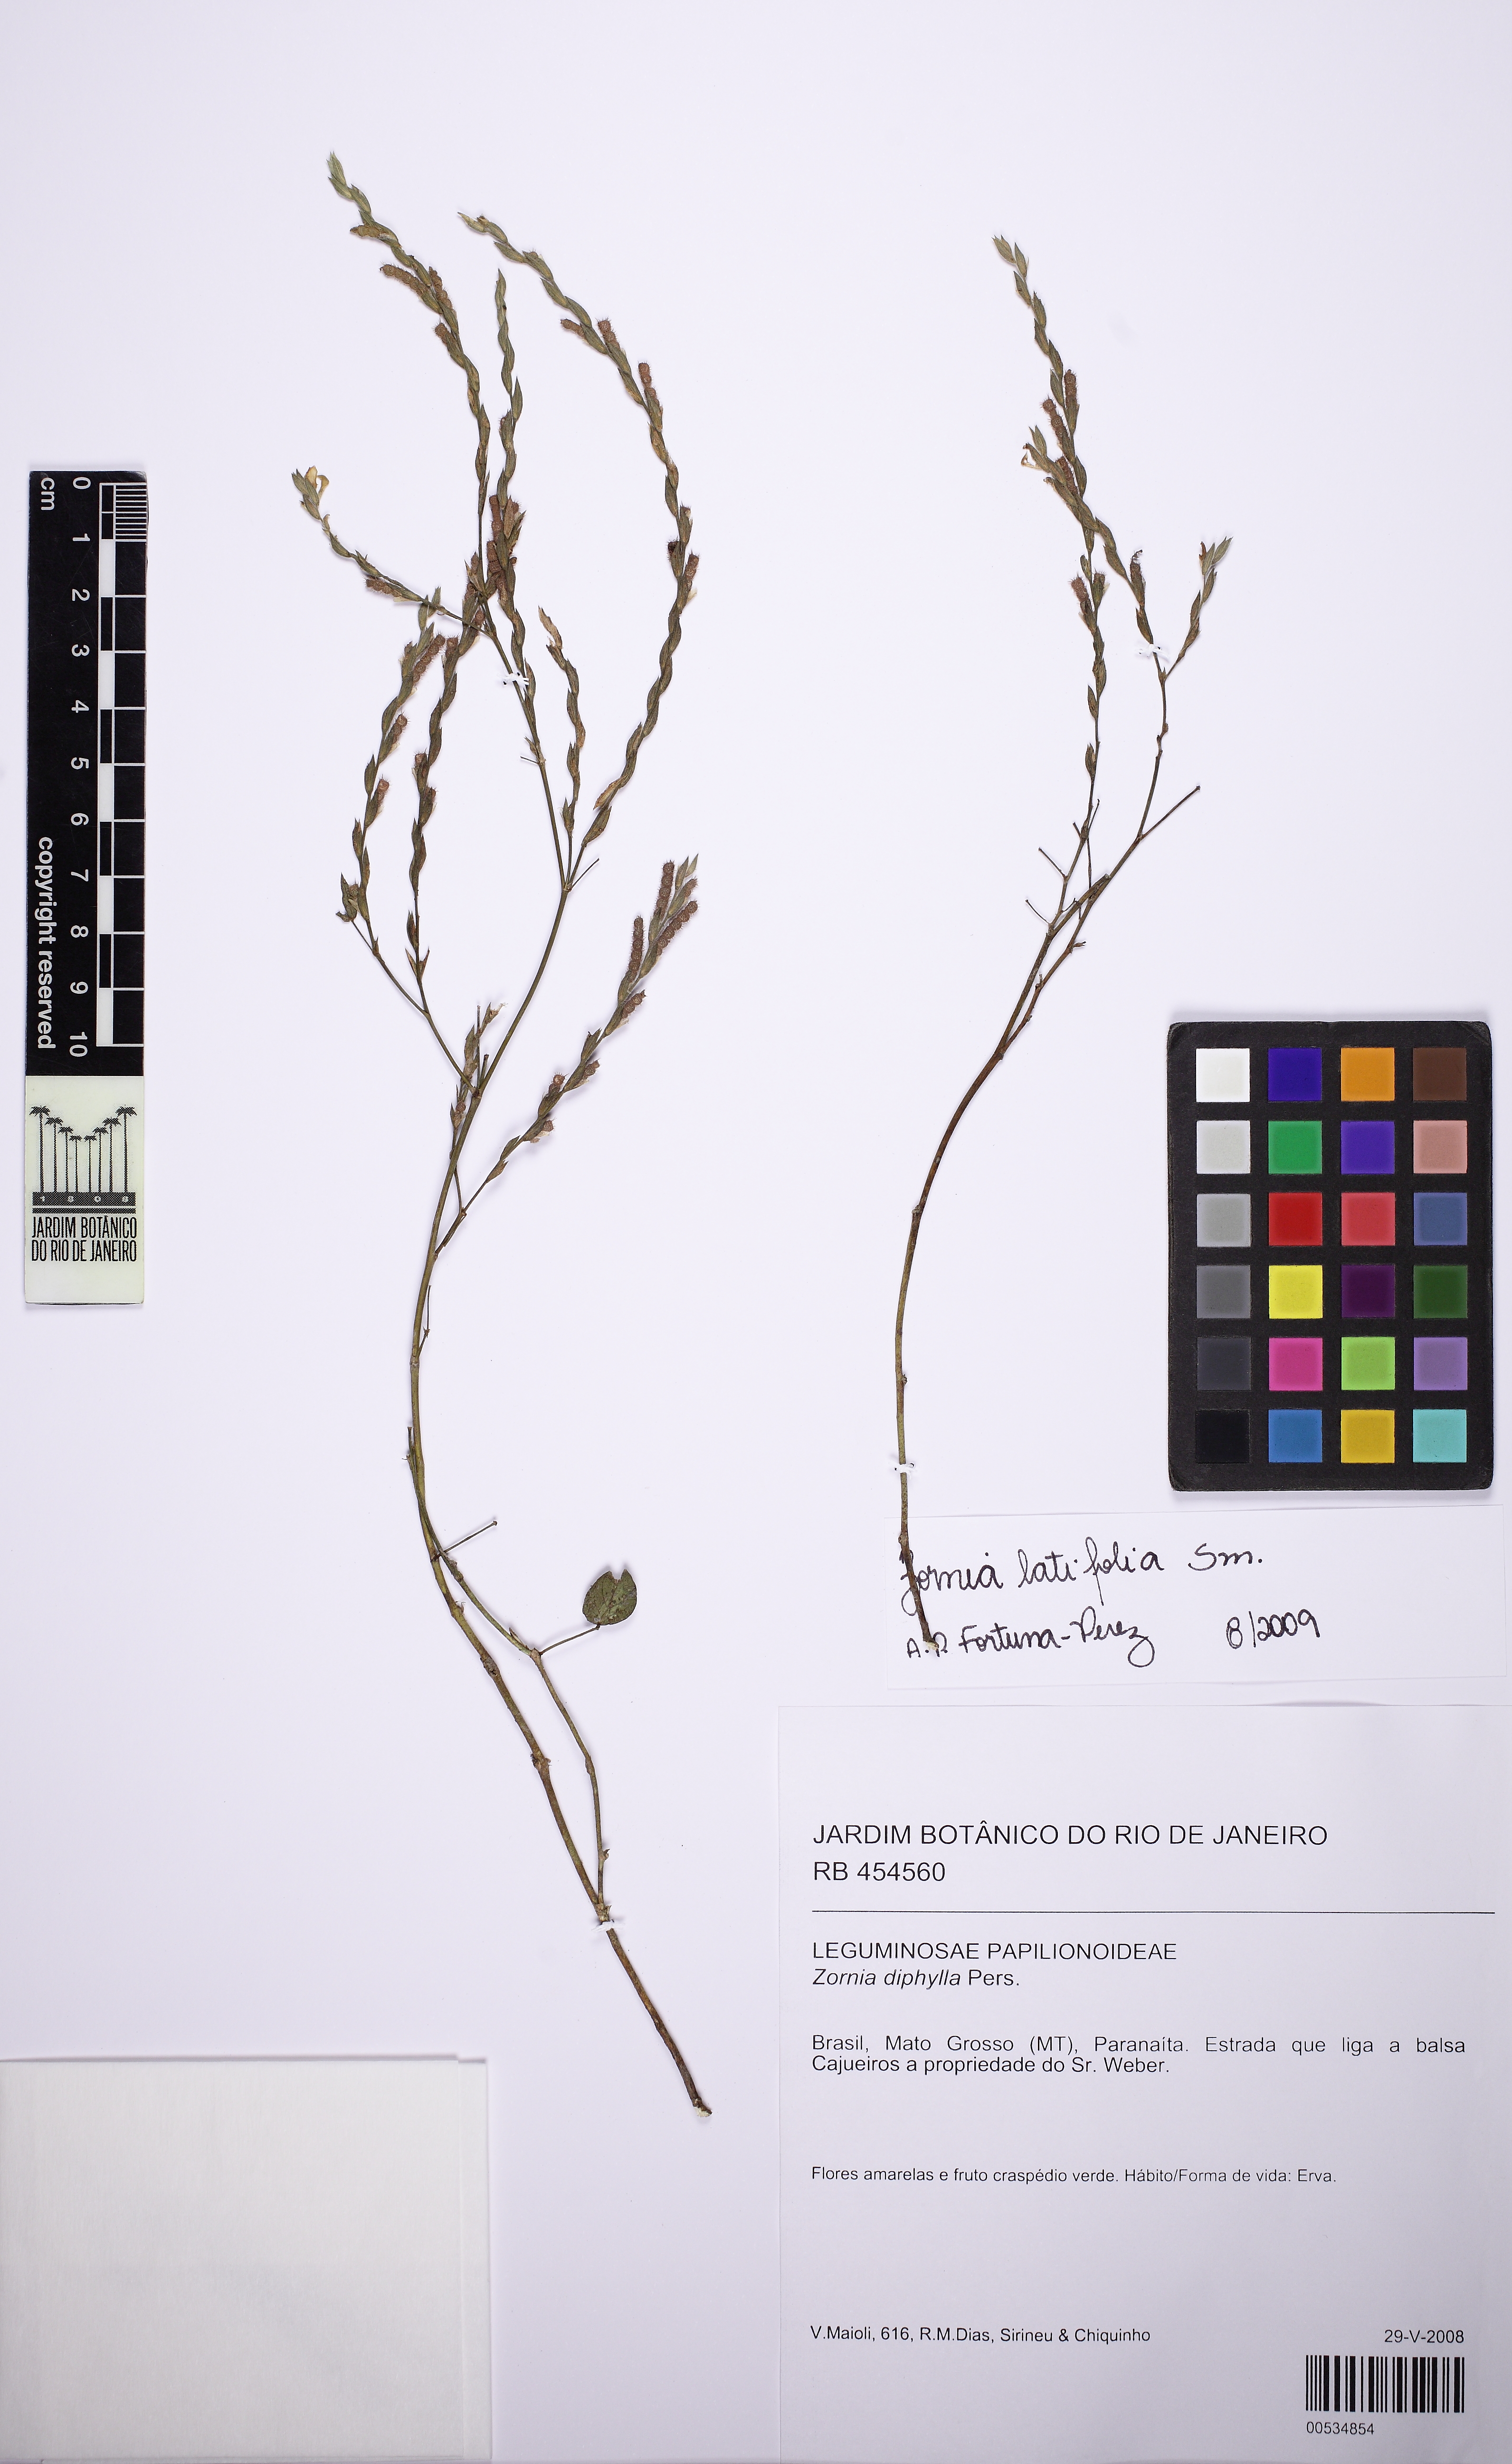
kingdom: Plantae
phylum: Tracheophyta
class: Magnoliopsida
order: Fabales
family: Fabaceae
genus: Zornia
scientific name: Zornia latifolia
